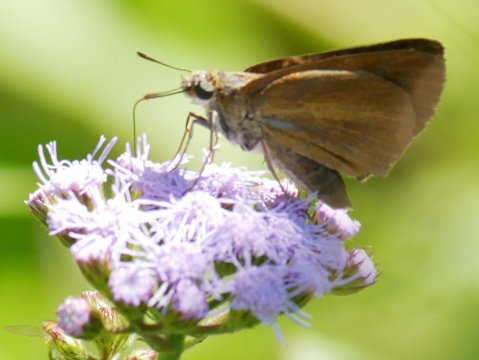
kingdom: Animalia
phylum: Arthropoda
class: Insecta
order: Lepidoptera
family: Hesperiidae
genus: Euphyes
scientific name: Euphyes dukesi
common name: Dukes' Skipper
